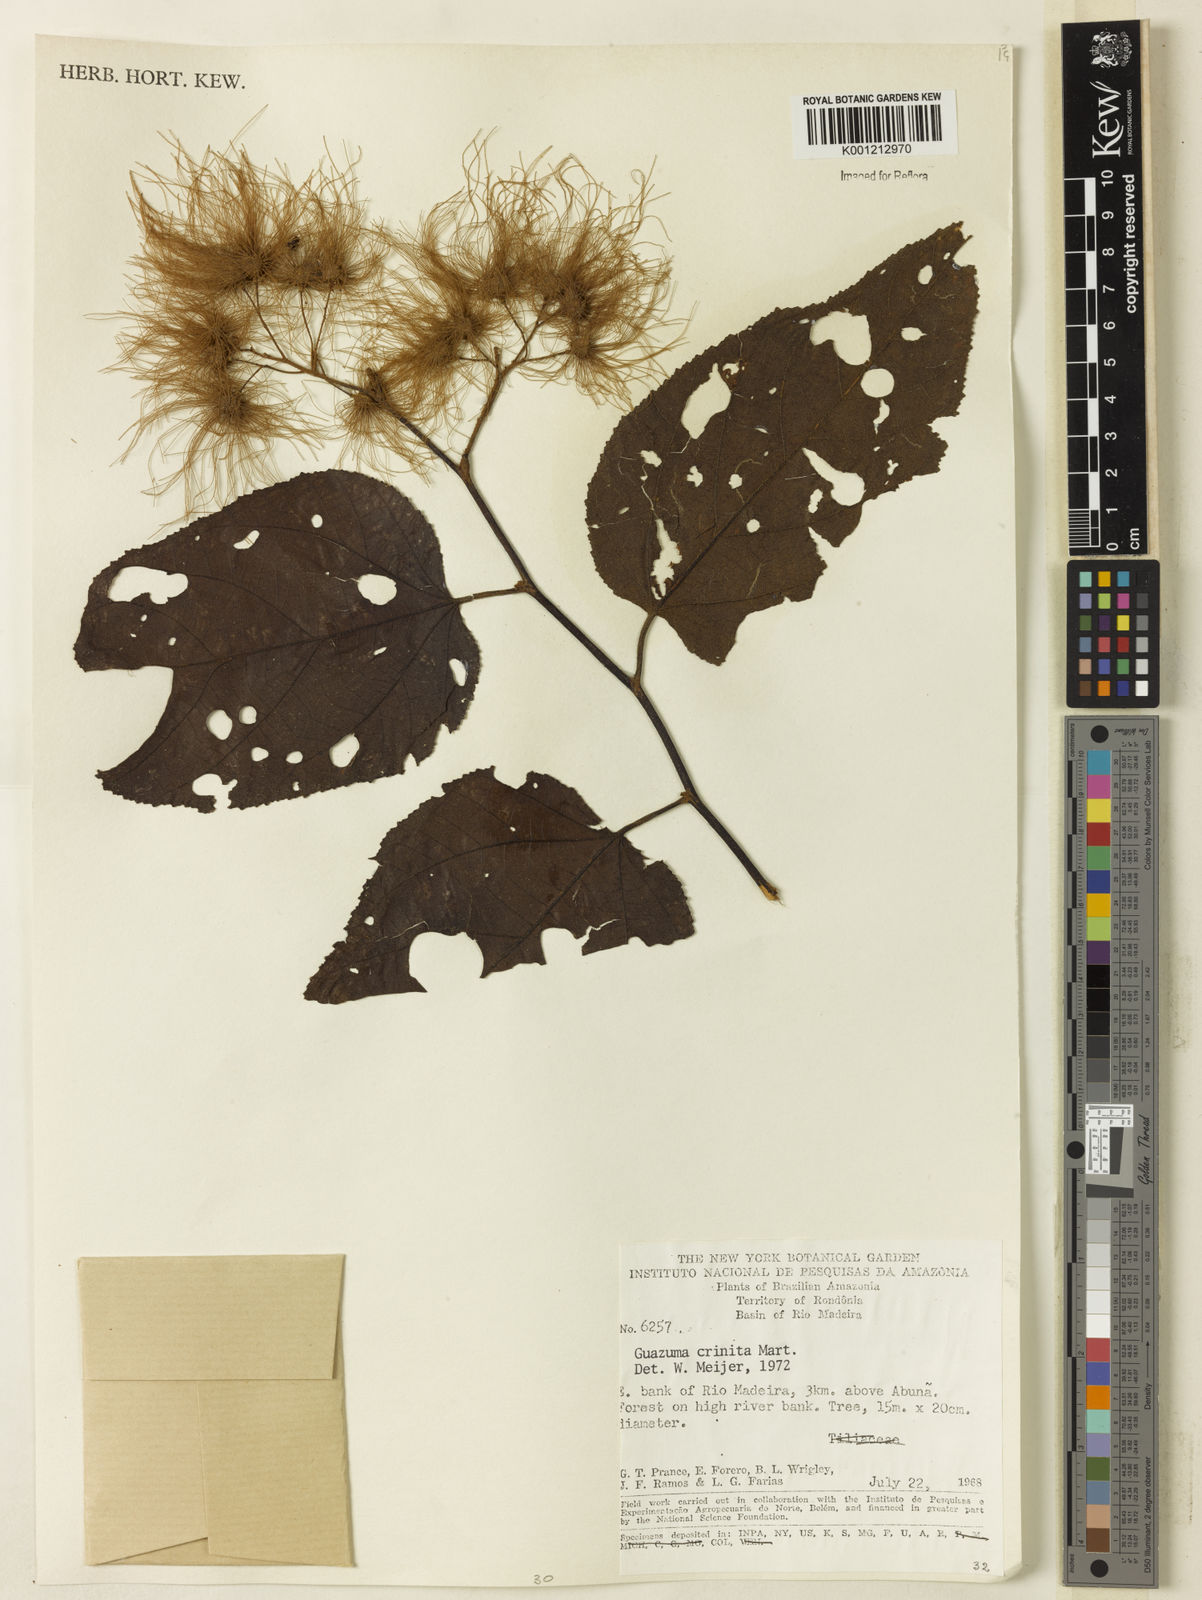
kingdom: Plantae
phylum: Tracheophyta
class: Magnoliopsida
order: Malvales
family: Malvaceae
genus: Guazuma
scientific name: Guazuma crinita
